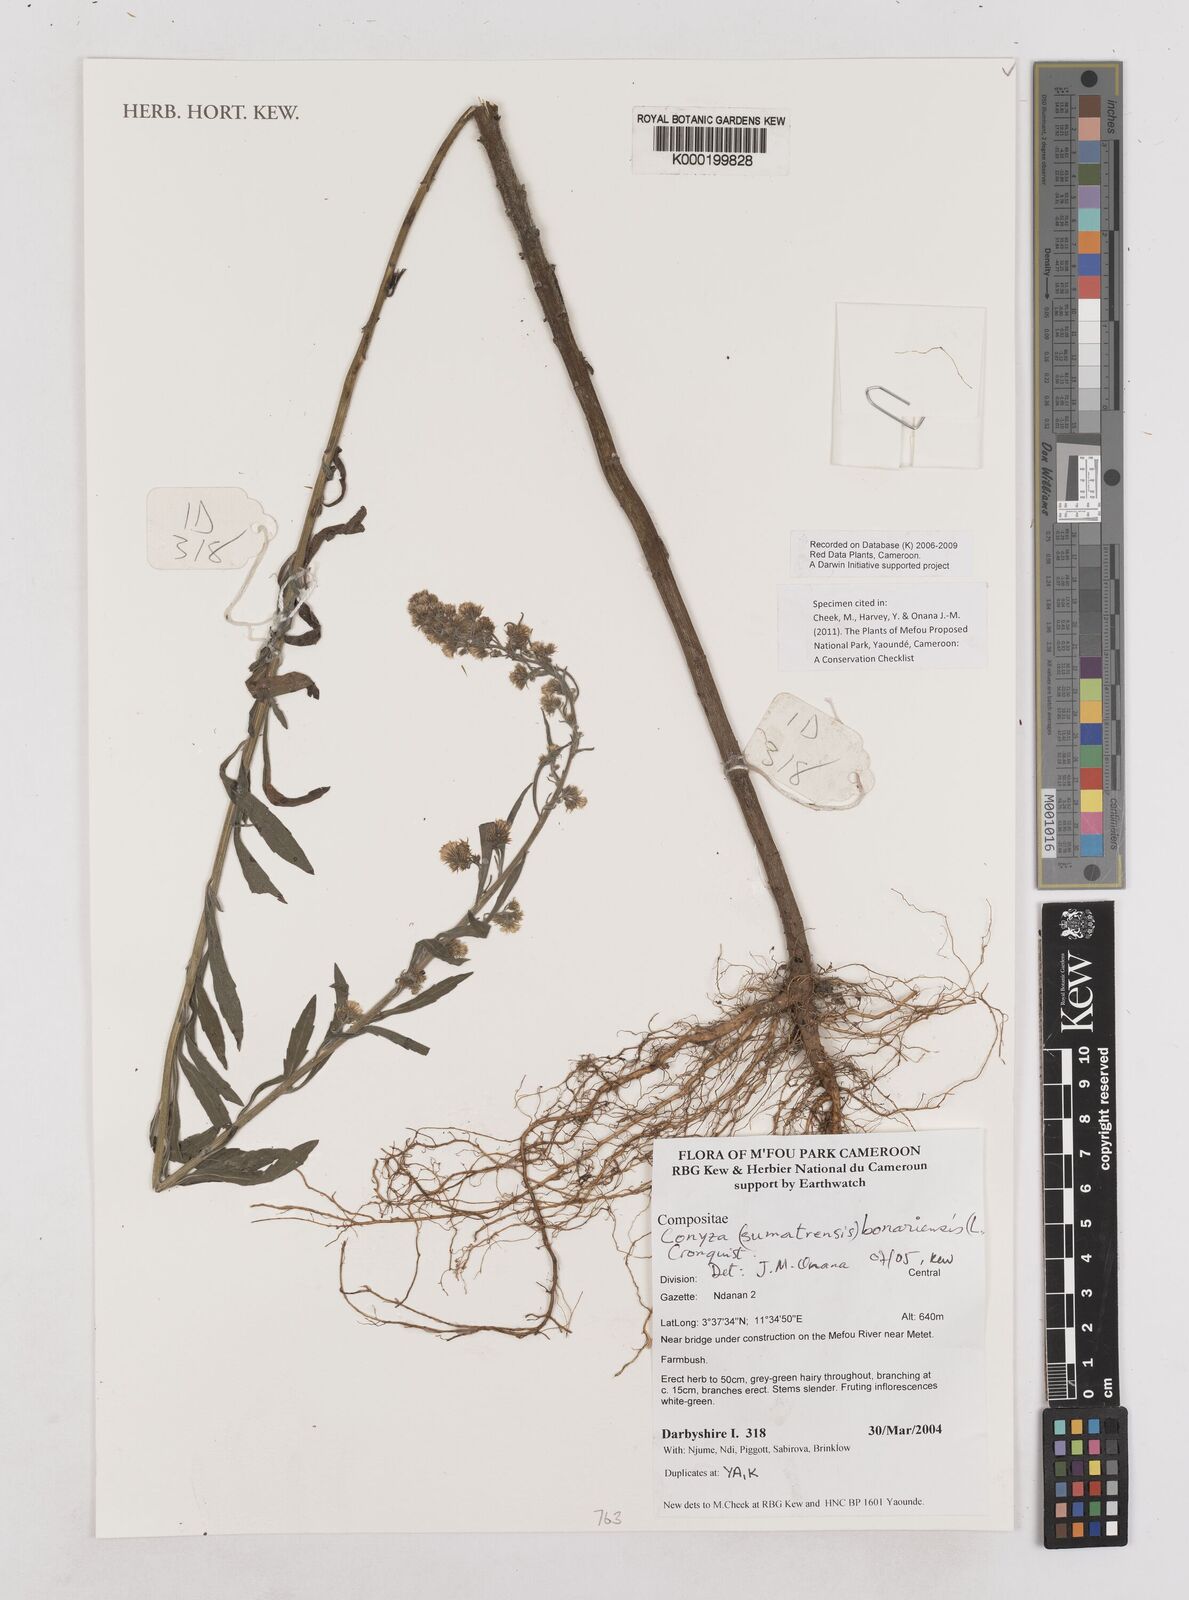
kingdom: Plantae
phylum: Tracheophyta
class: Magnoliopsida
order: Asterales
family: Asteraceae
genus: Erigeron
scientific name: Erigeron bonariensis
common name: Argentine fleabane
